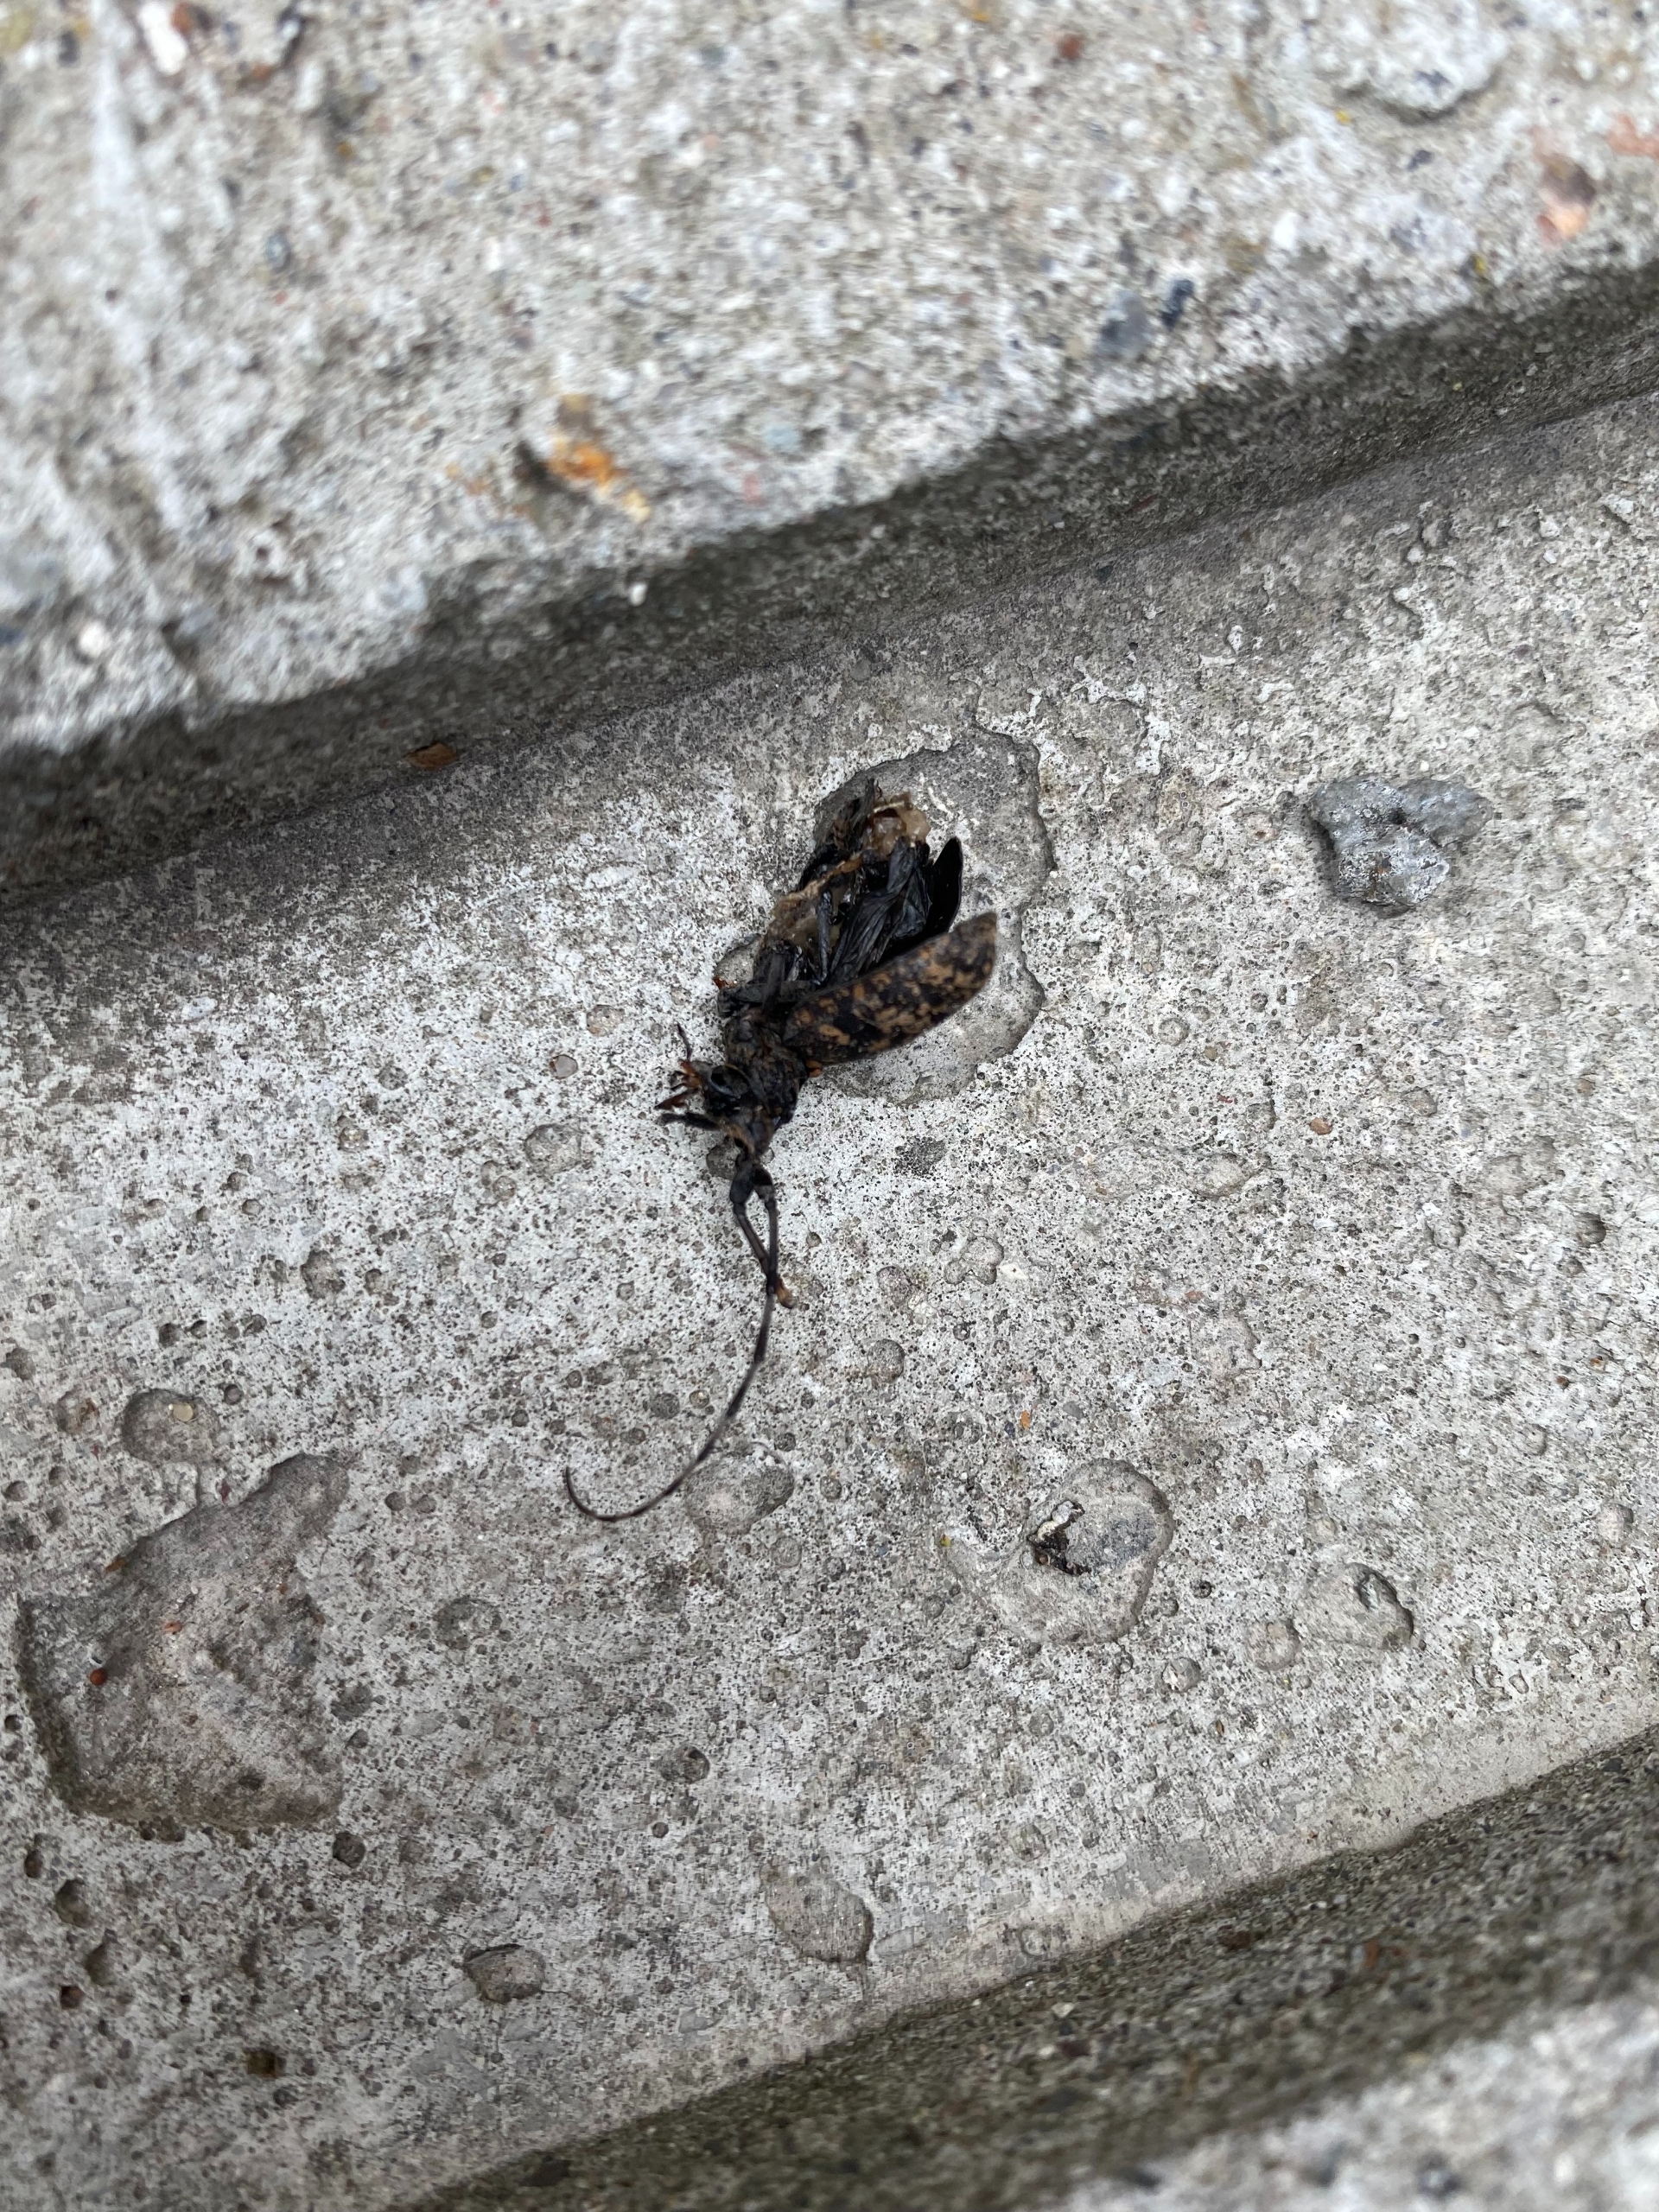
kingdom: Animalia
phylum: Arthropoda
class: Insecta
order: Coleoptera
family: Cerambycidae
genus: Monochamus
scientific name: Monochamus sartor
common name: Langhornet granbuk
